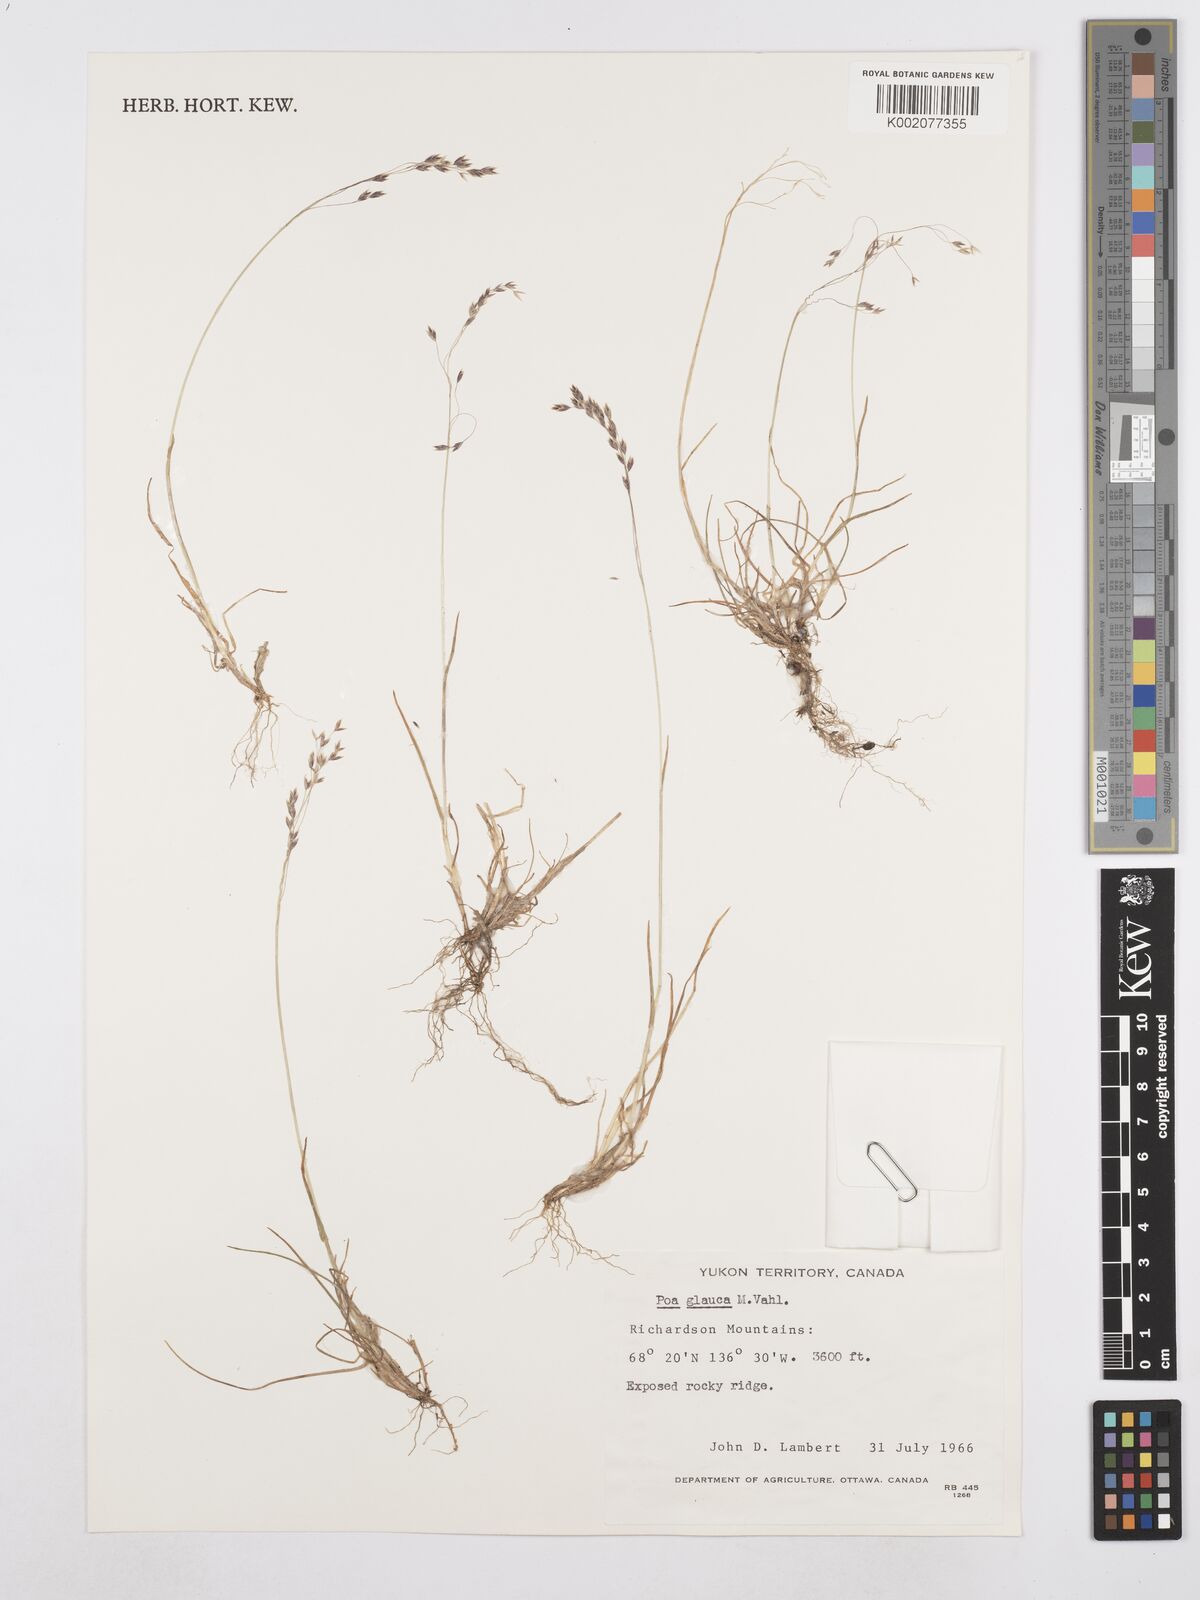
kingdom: Plantae
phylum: Tracheophyta
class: Liliopsida
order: Poales
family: Poaceae
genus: Poa
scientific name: Poa glauca
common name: Glaucous bluegrass
